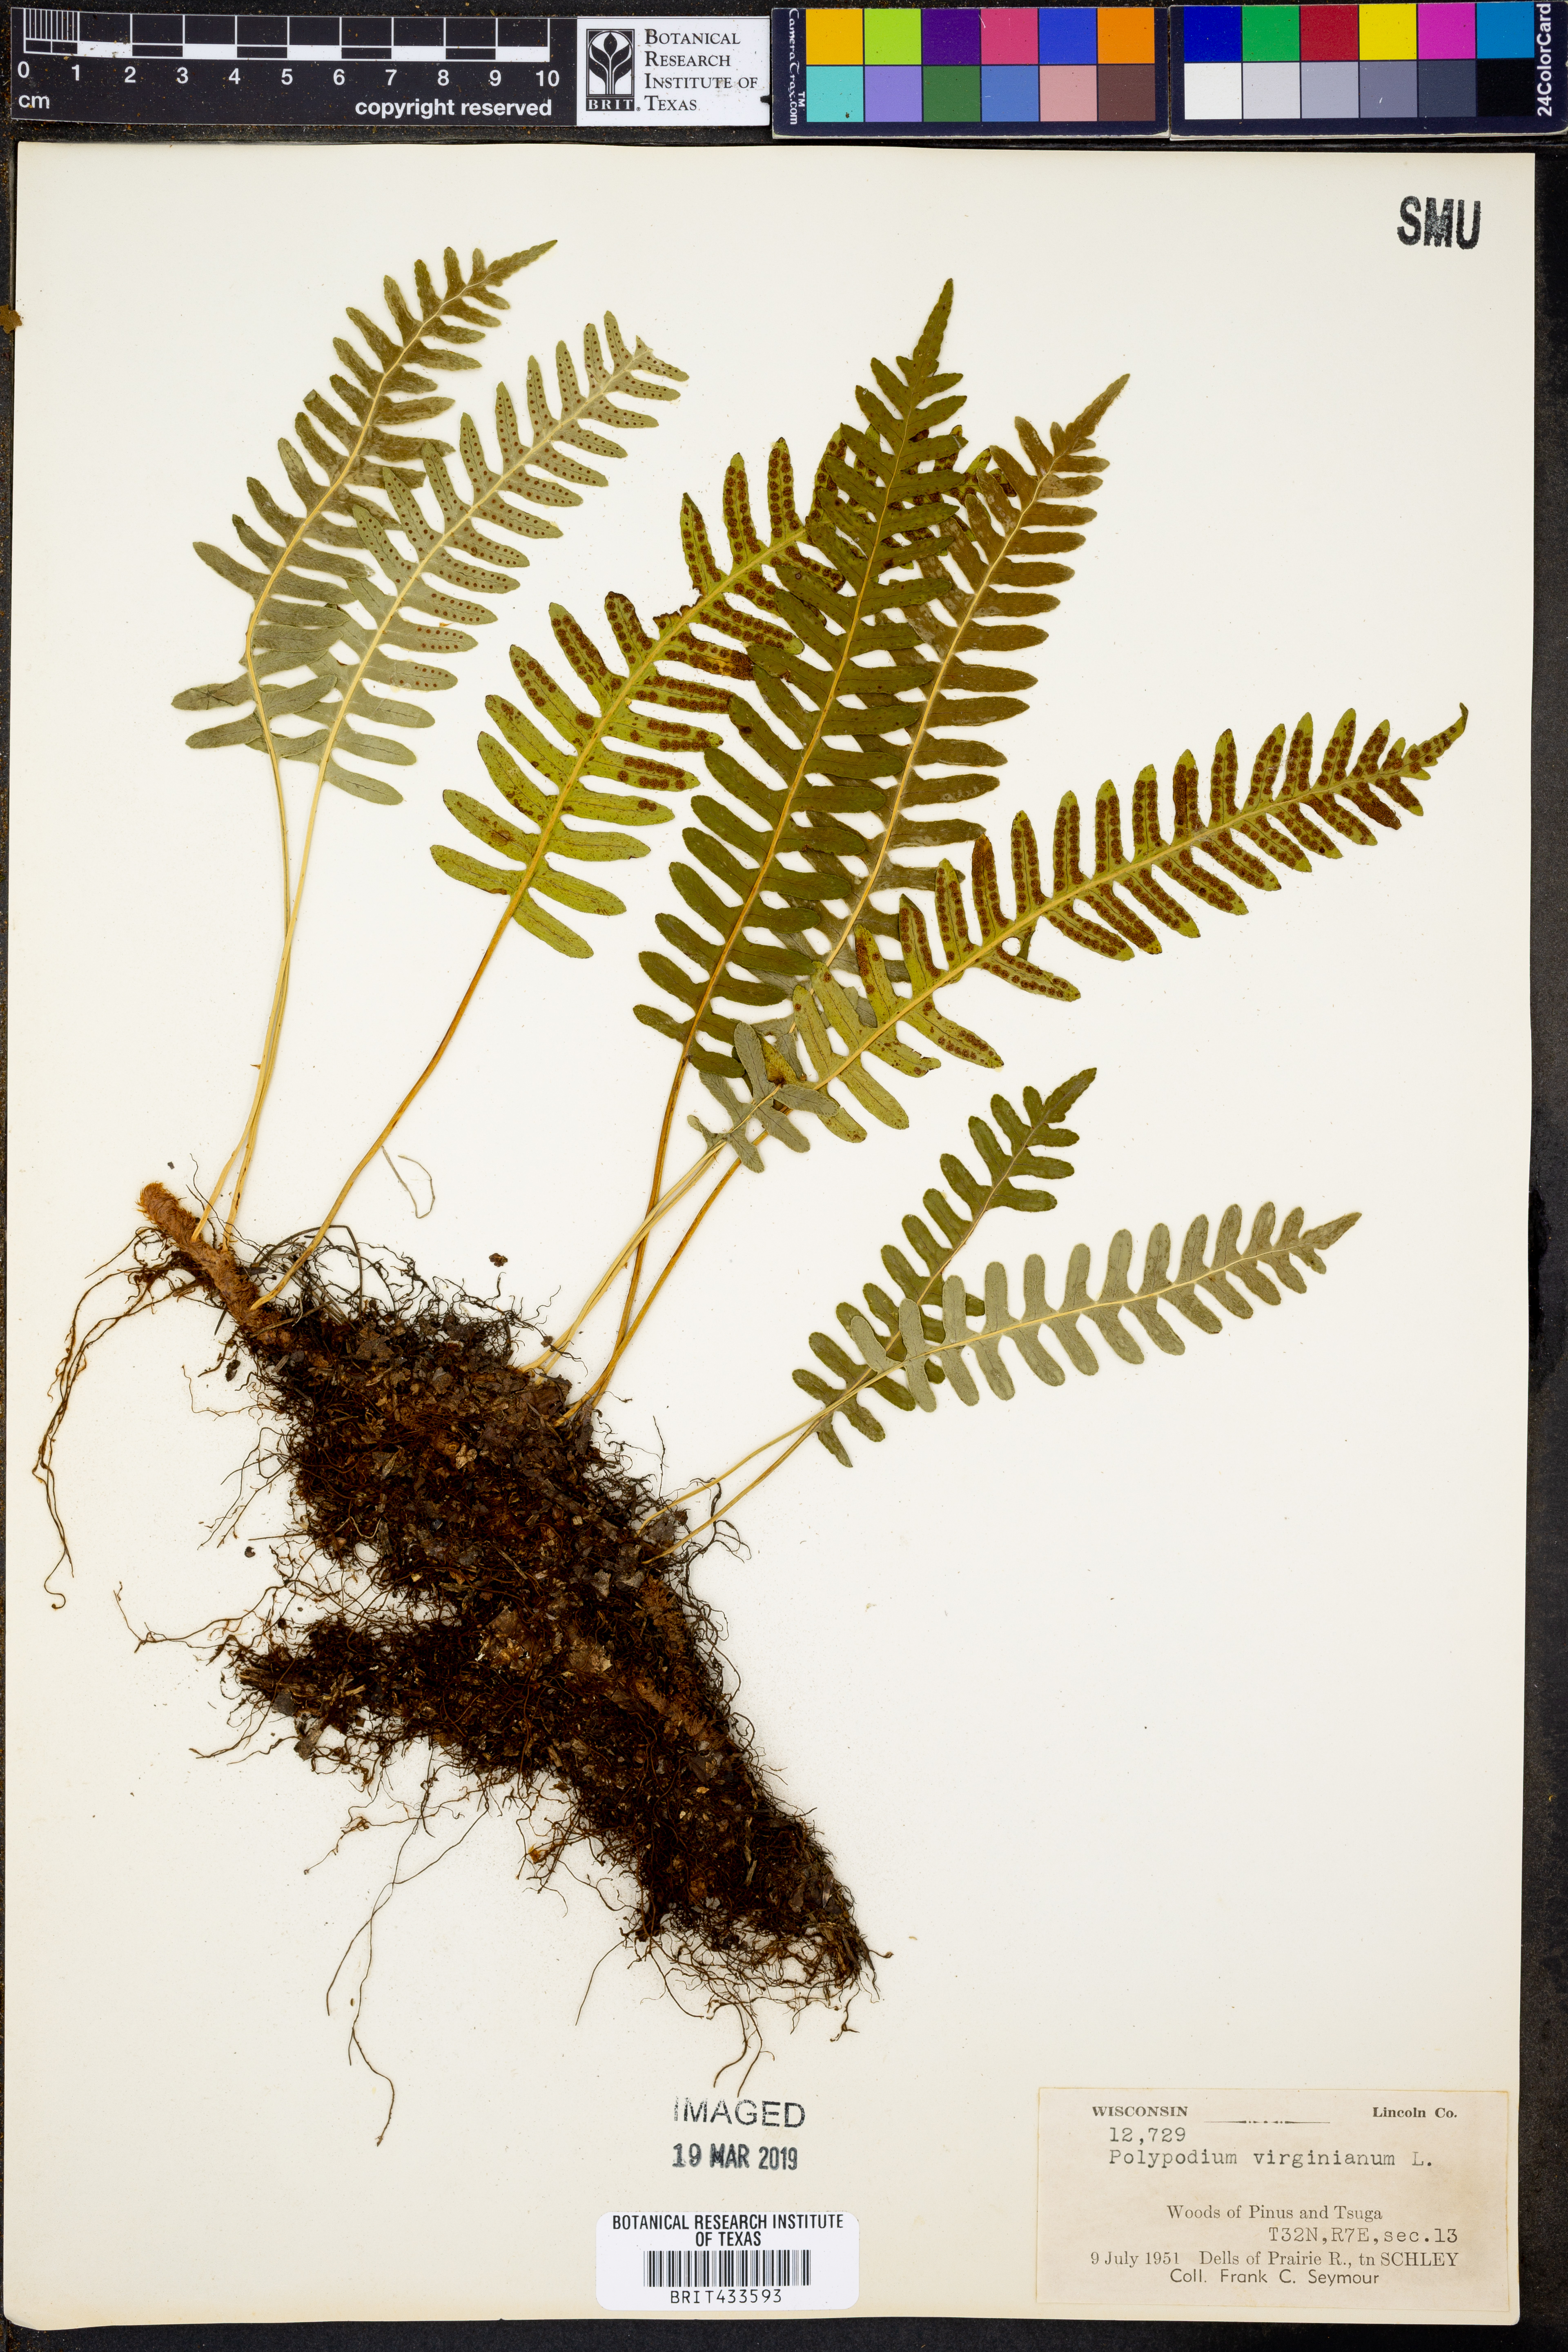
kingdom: Plantae
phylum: Tracheophyta
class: Polypodiopsida
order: Polypodiales
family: Polypodiaceae
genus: Polypodium
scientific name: Polypodium virginianum
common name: American wall fern
